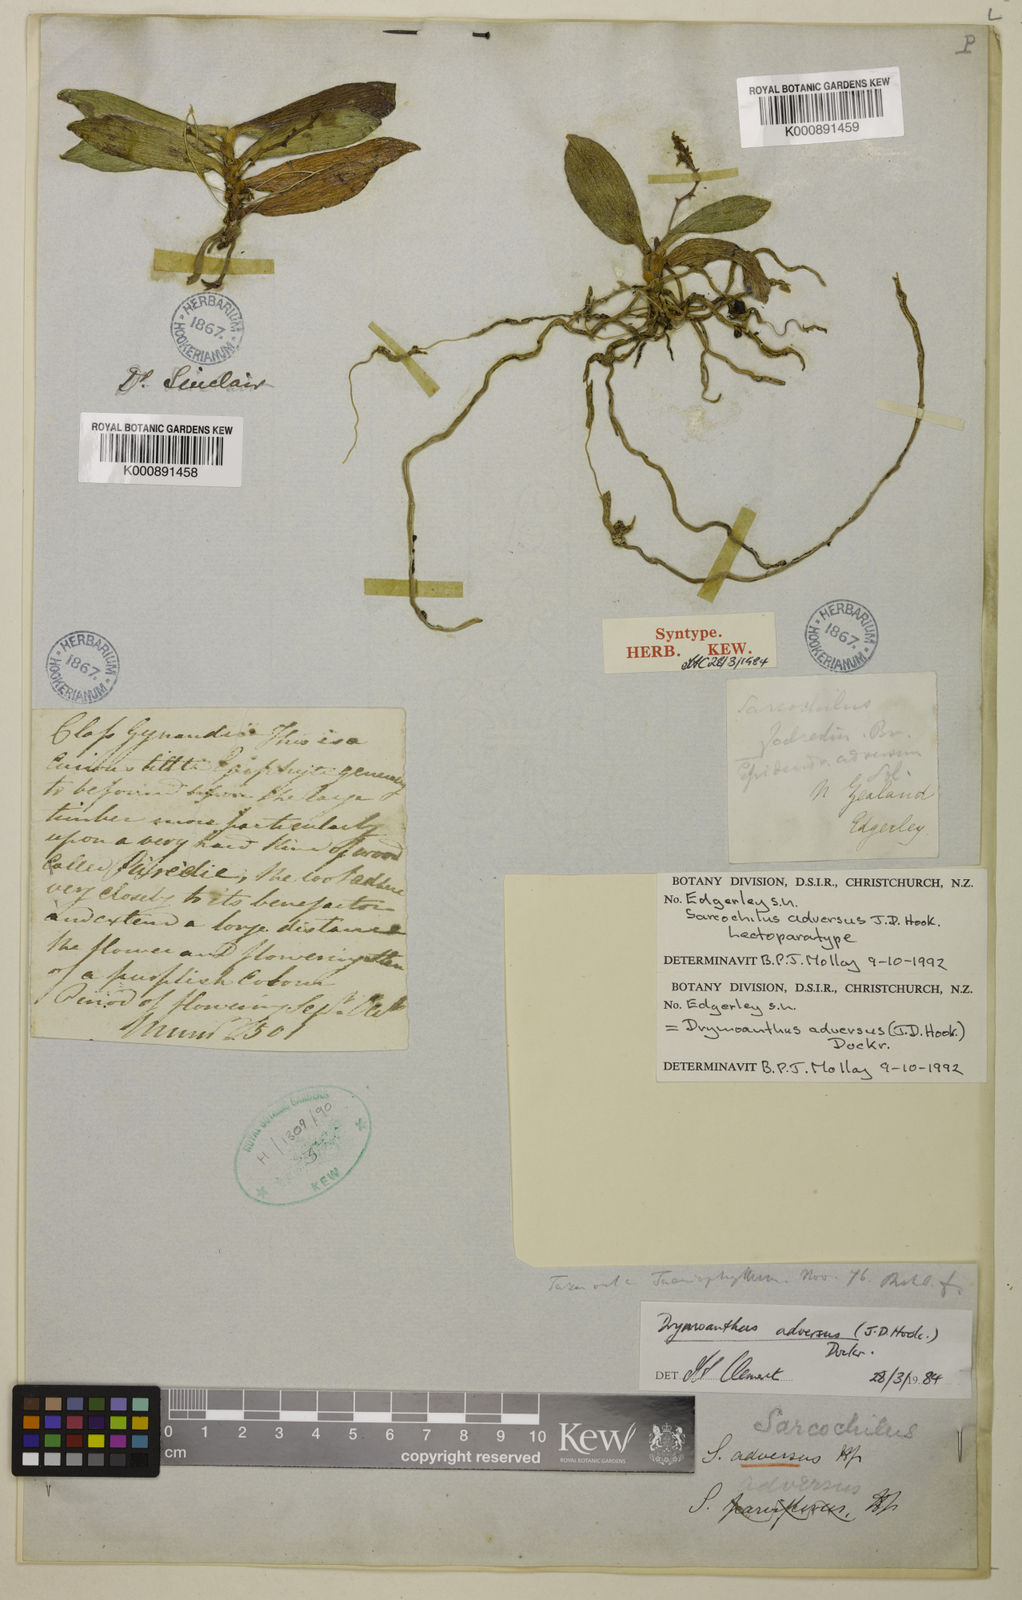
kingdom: Plantae
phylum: Tracheophyta
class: Liliopsida
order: Asparagales
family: Orchidaceae
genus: Drymoanthus
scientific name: Drymoanthus adversus
